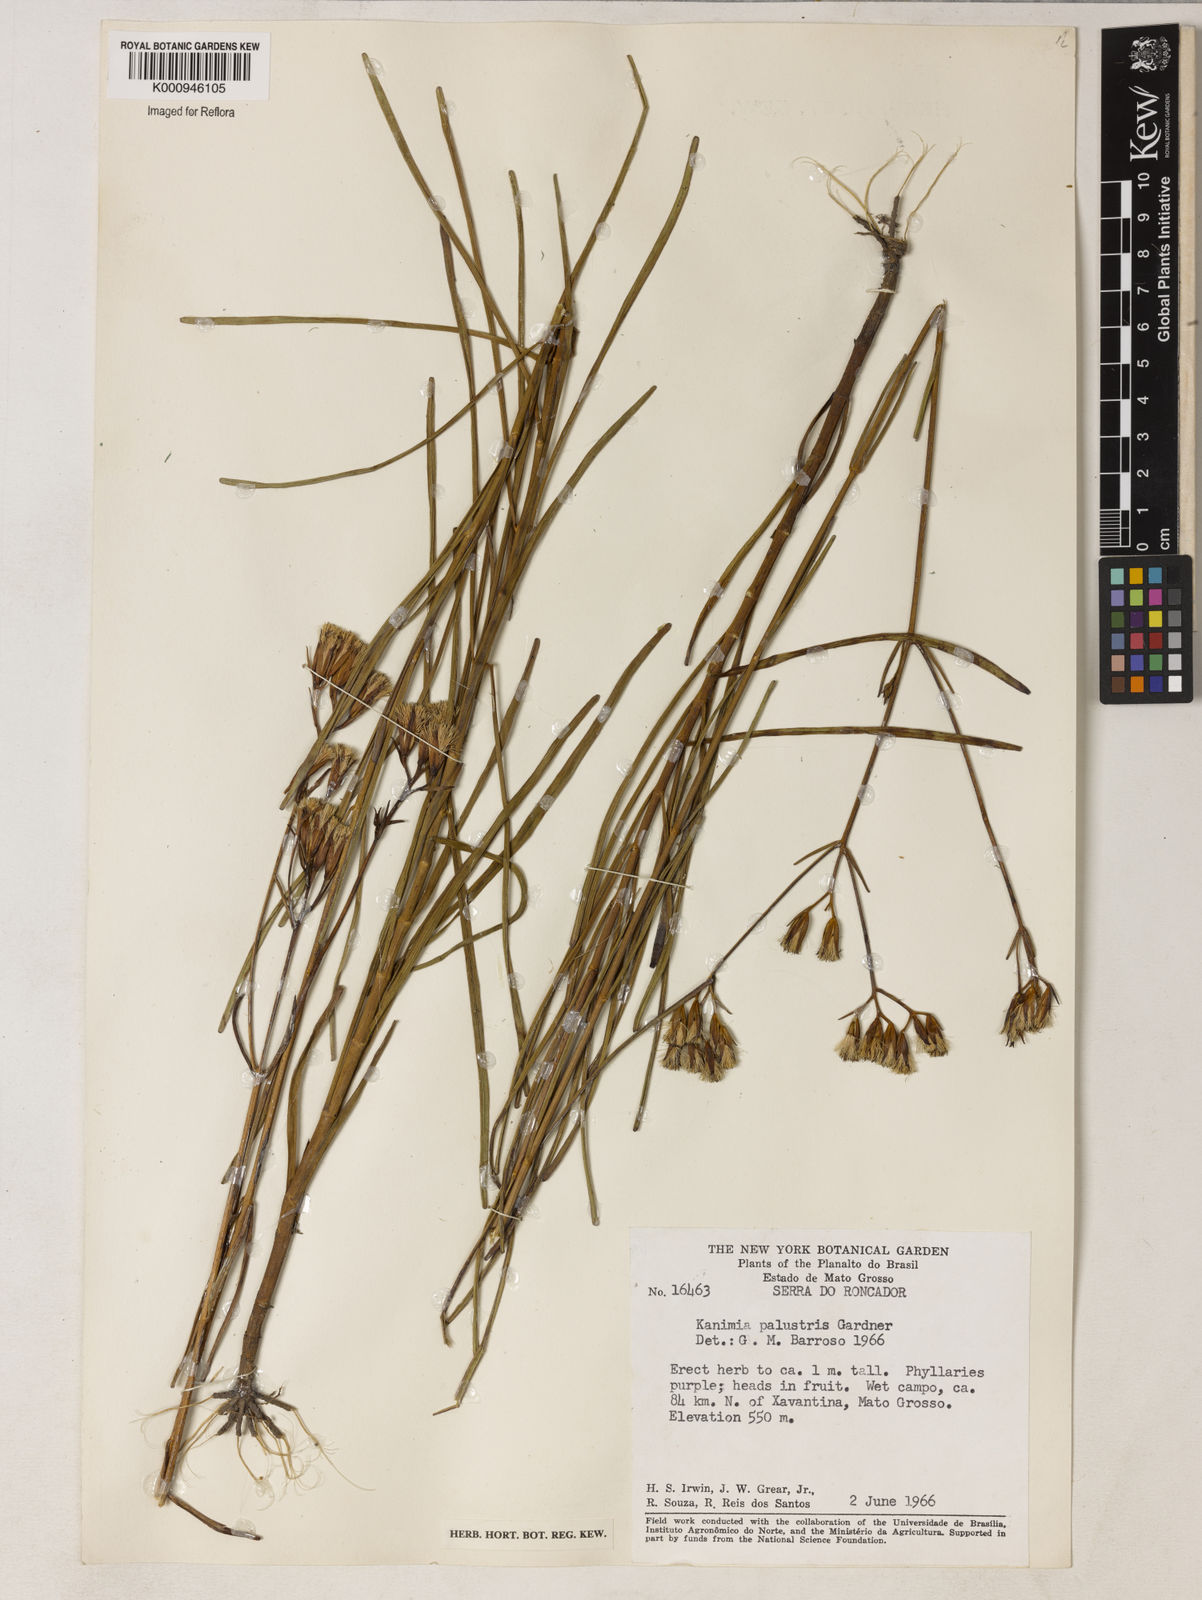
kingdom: Plantae
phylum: Tracheophyta
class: Magnoliopsida
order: Asterales
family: Asteraceae
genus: Mikania
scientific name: Mikania palustris
